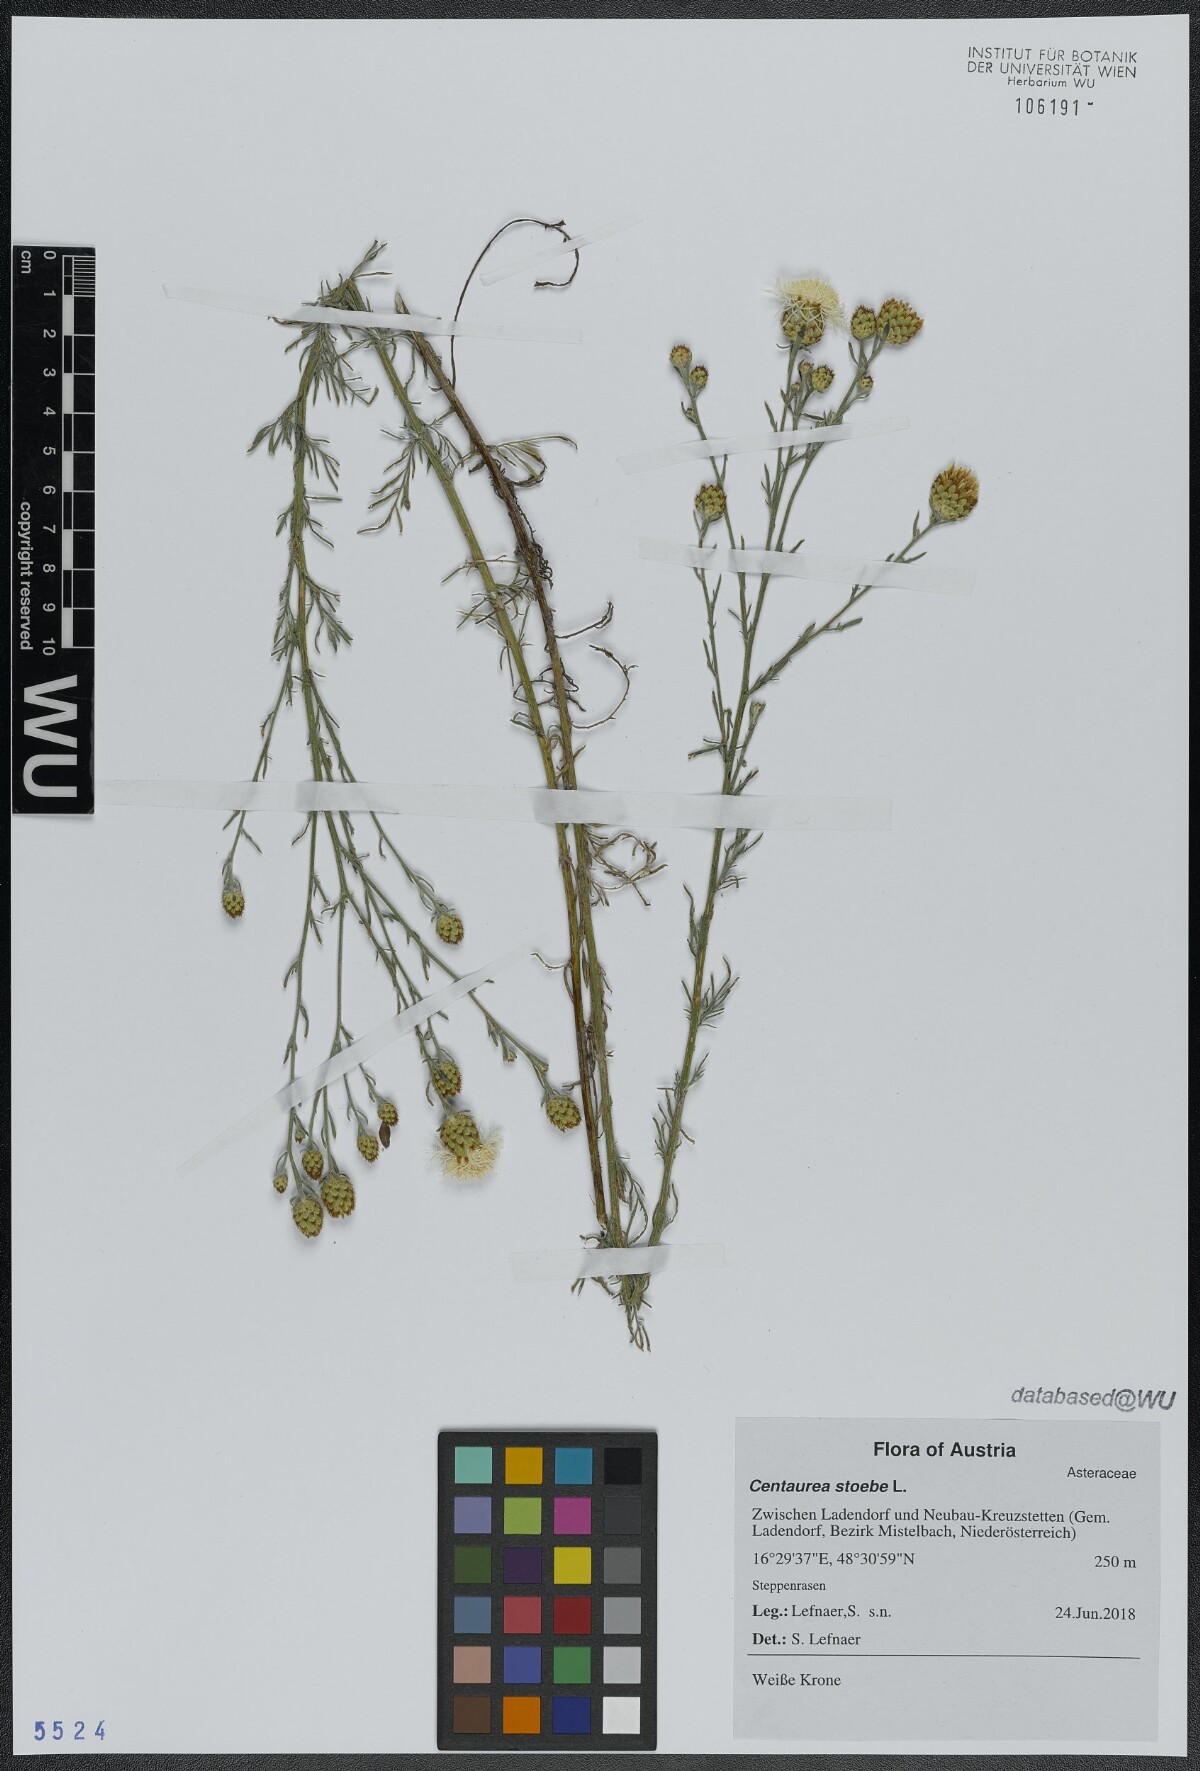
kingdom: Plantae
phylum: Tracheophyta
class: Magnoliopsida
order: Asterales
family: Asteraceae
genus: Centaurea
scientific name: Centaurea stoebe
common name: Spotted knapweed
